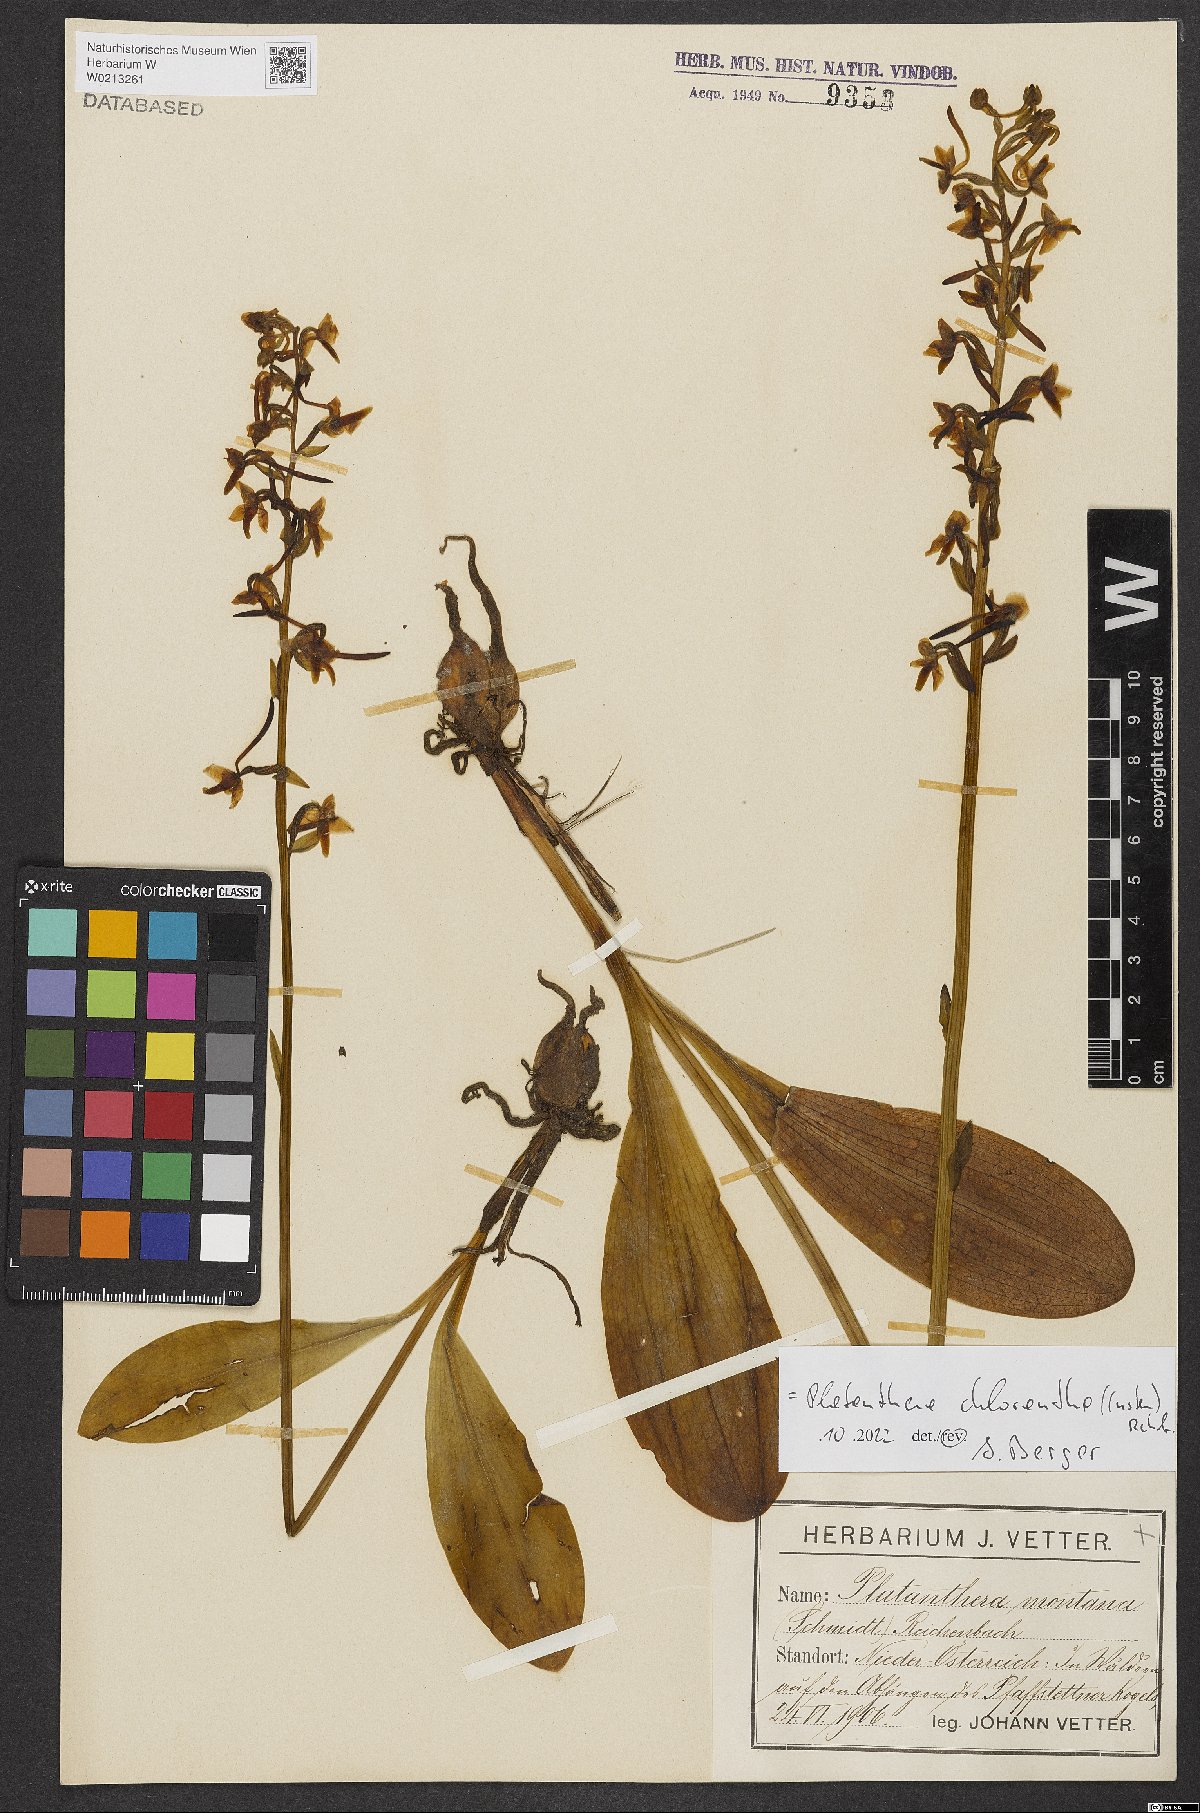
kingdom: Plantae
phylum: Tracheophyta
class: Liliopsida
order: Asparagales
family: Orchidaceae
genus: Platanthera
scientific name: Platanthera chlorantha
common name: Greater butterfly-orchid
